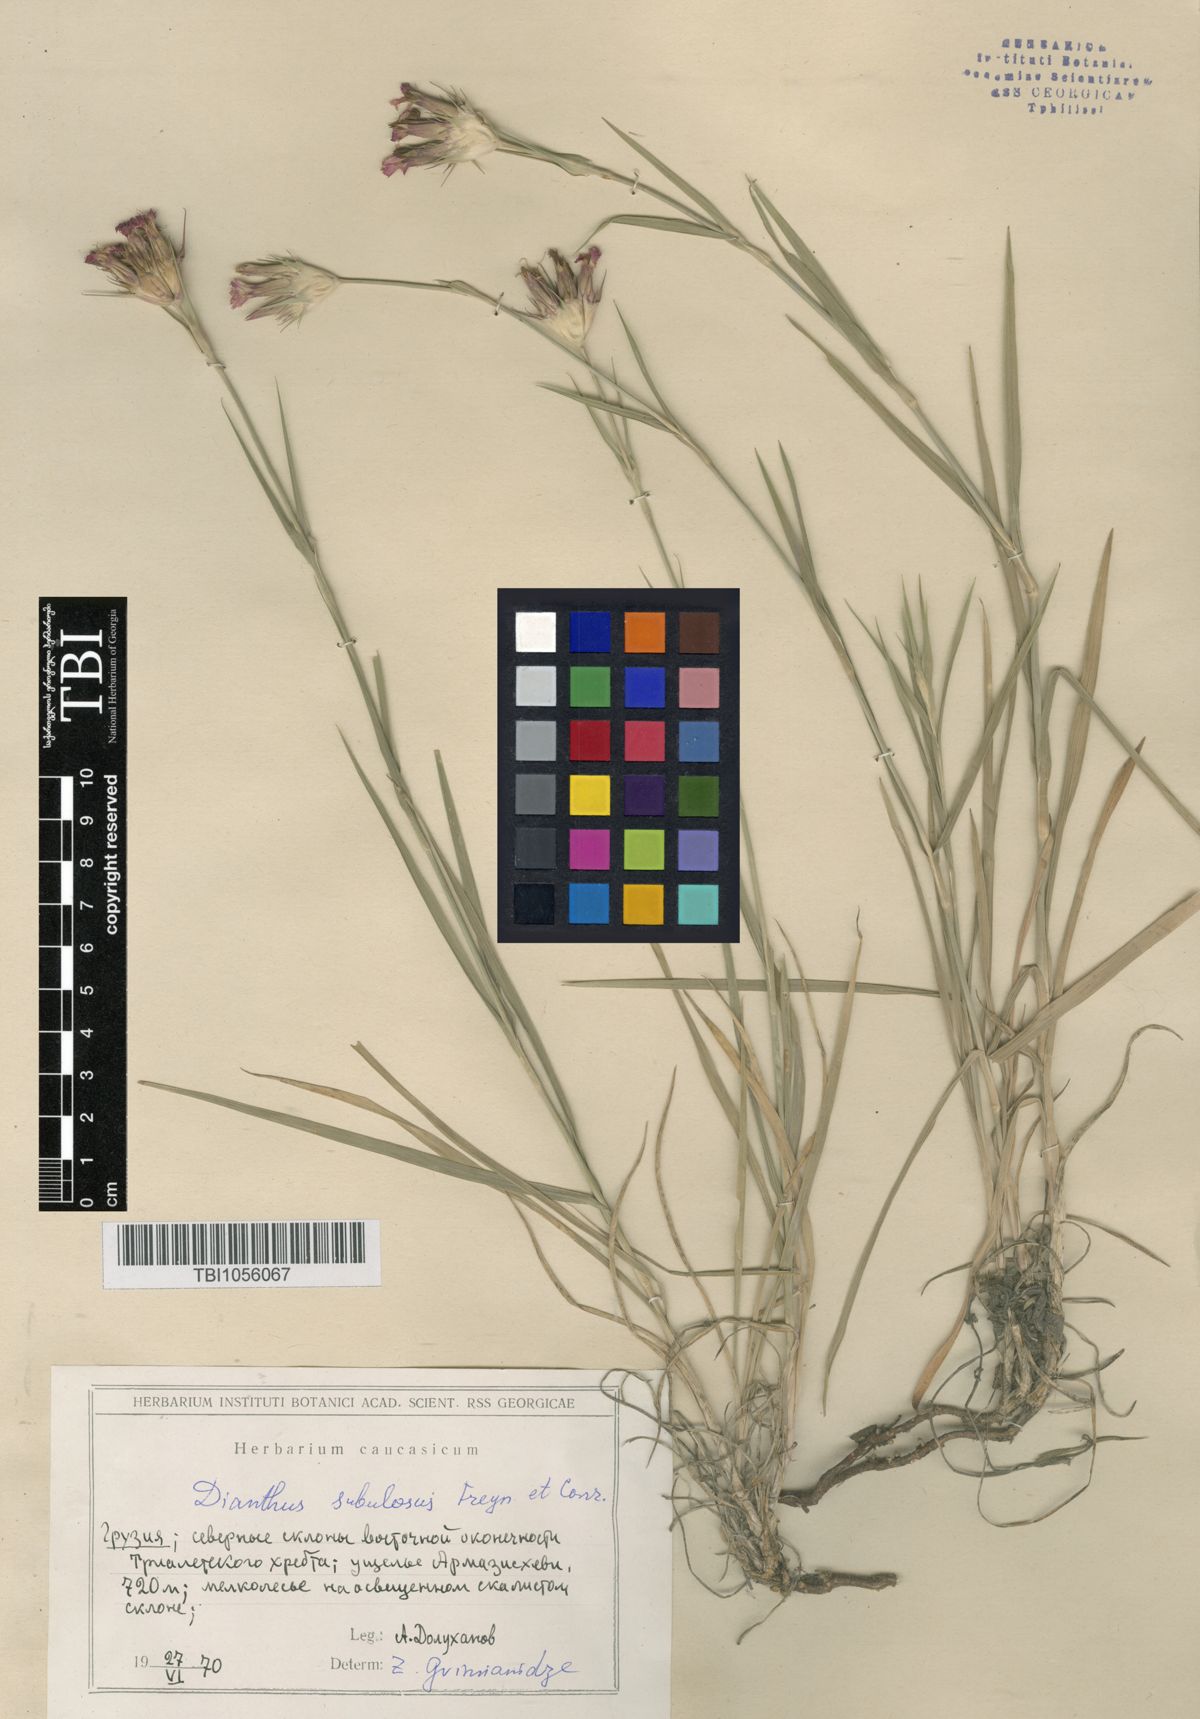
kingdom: Plantae
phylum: Tracheophyta
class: Magnoliopsida
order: Caryophyllales
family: Caryophyllaceae
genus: Dianthus
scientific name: Dianthus subulosus
